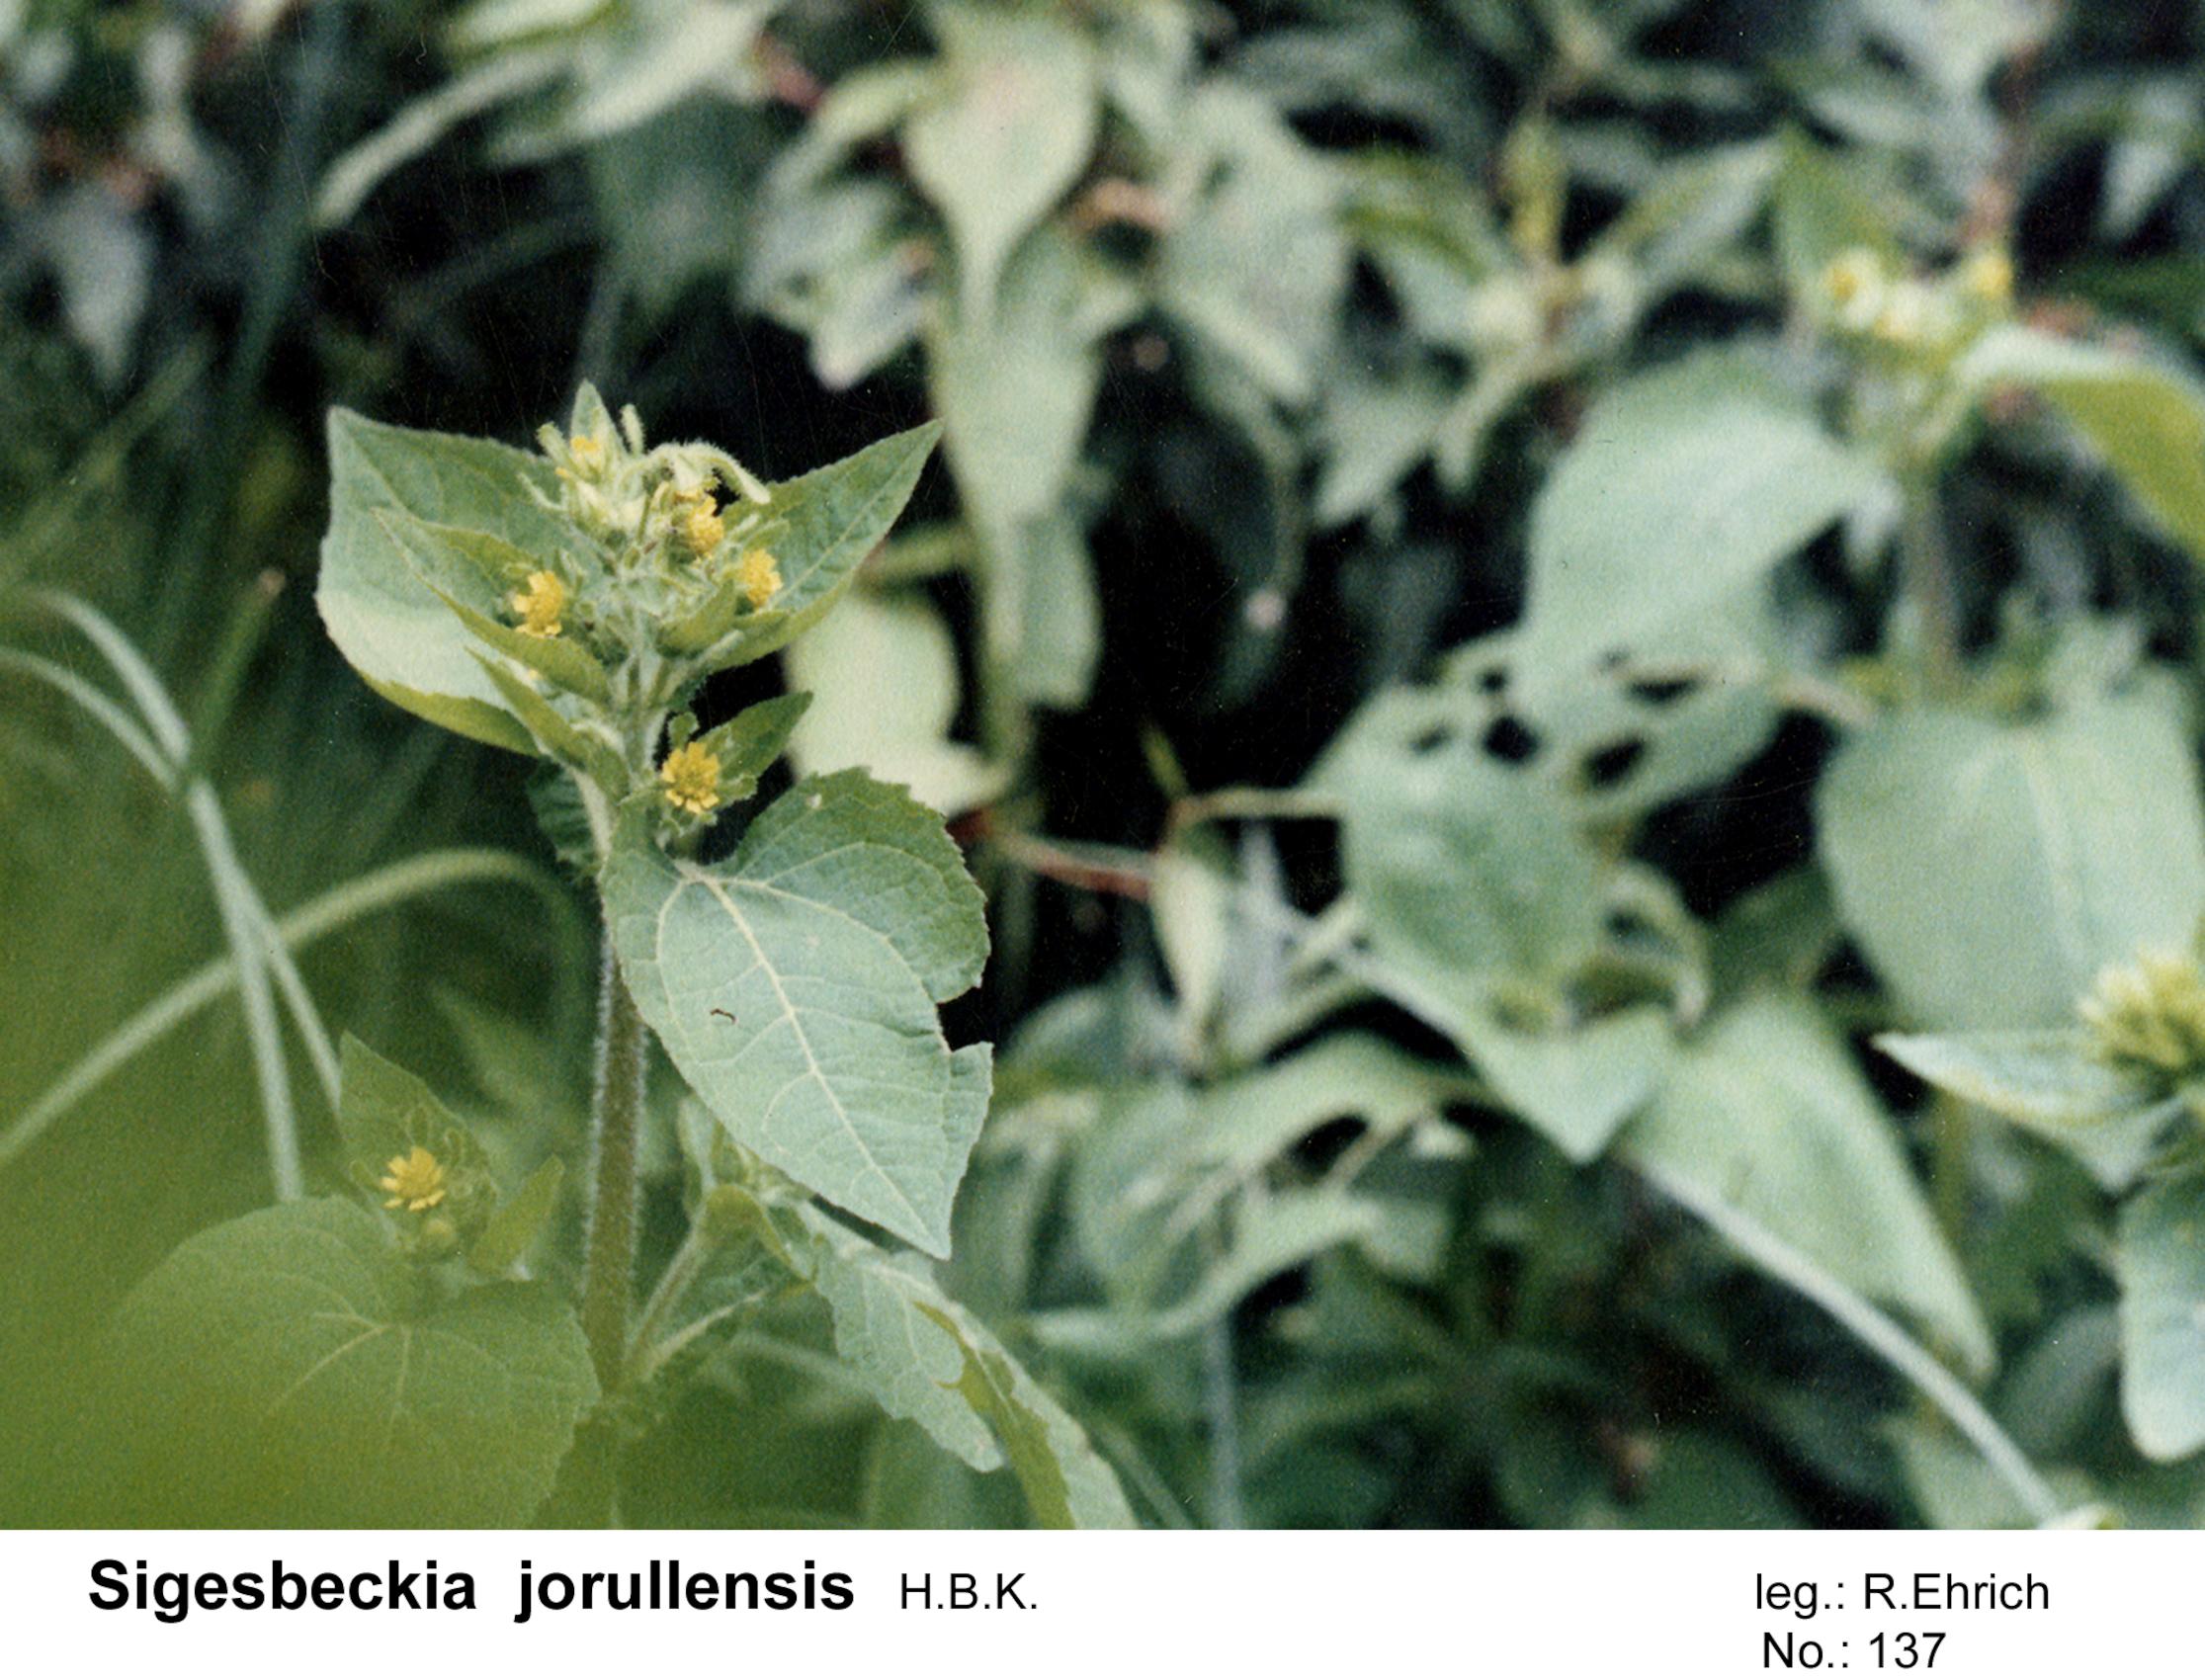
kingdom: Plantae
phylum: Tracheophyta
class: Magnoliopsida
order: Asterales
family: Asteraceae
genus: Sigesbeckia
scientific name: Sigesbeckia jorullensis
